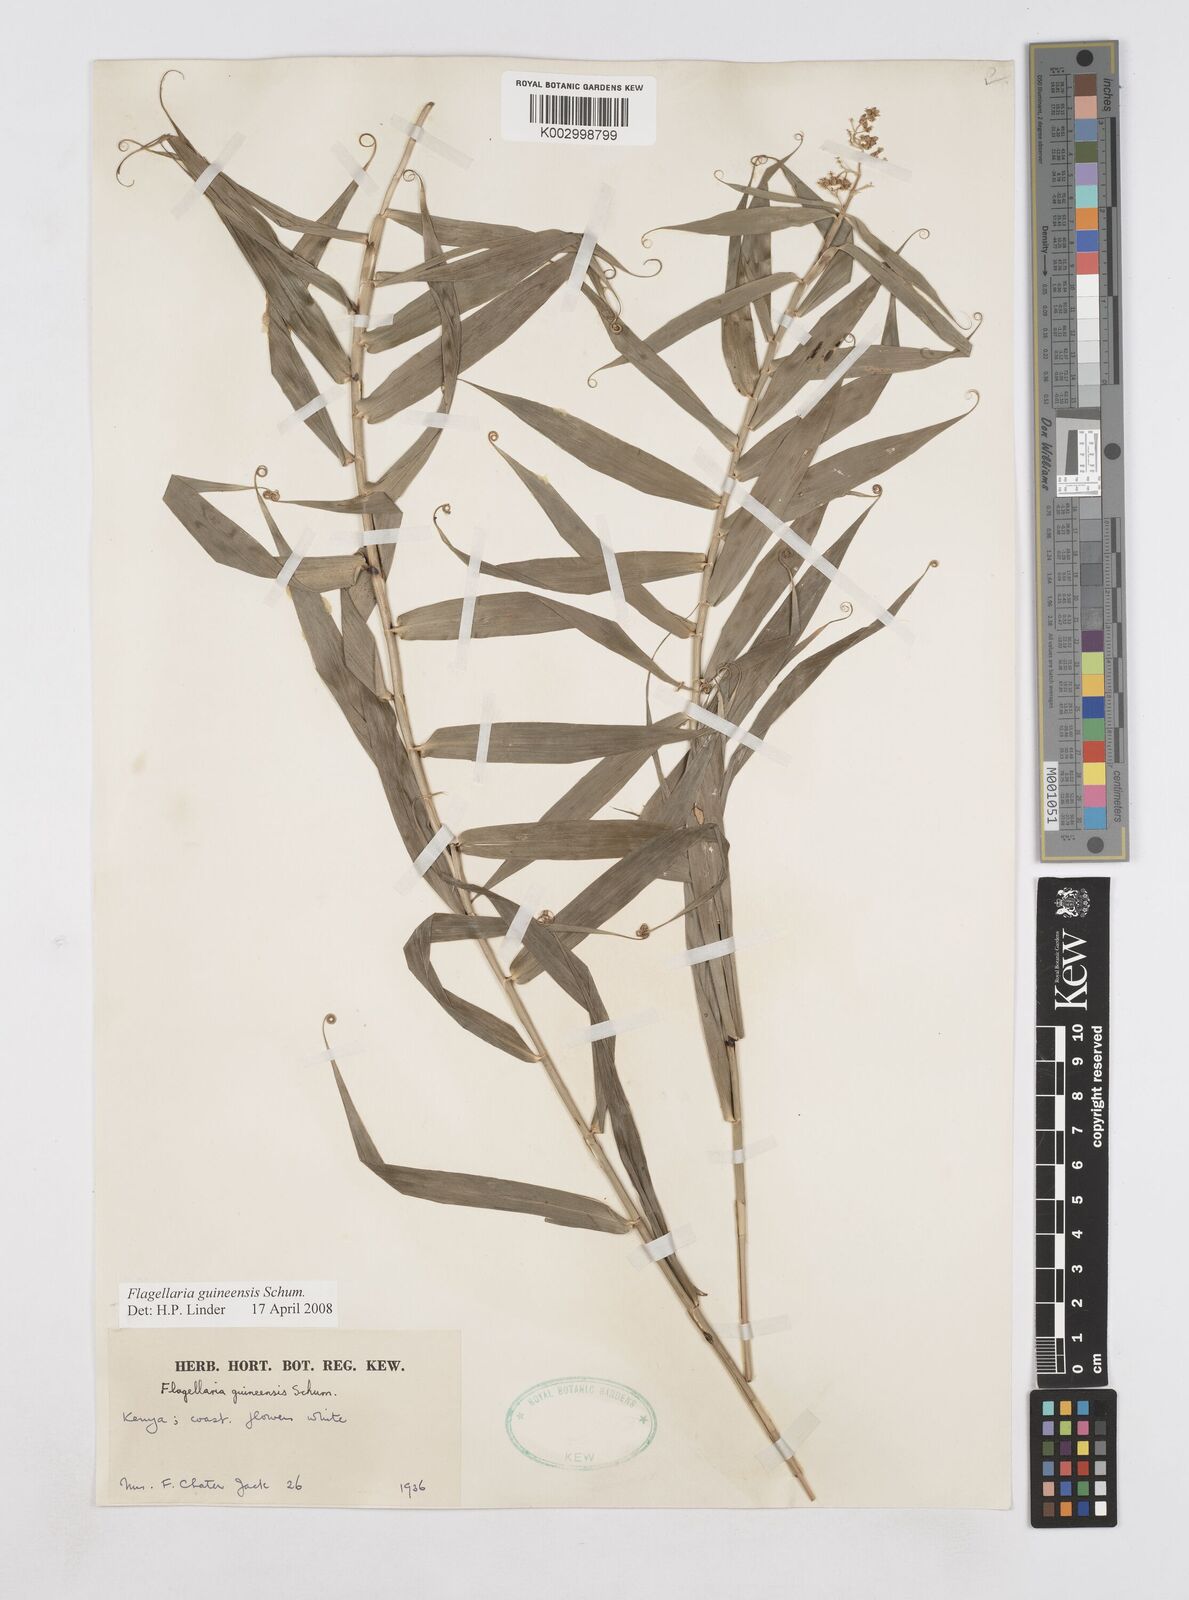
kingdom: Plantae
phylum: Tracheophyta
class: Liliopsida
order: Poales
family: Flagellariaceae
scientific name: Flagellariaceae
